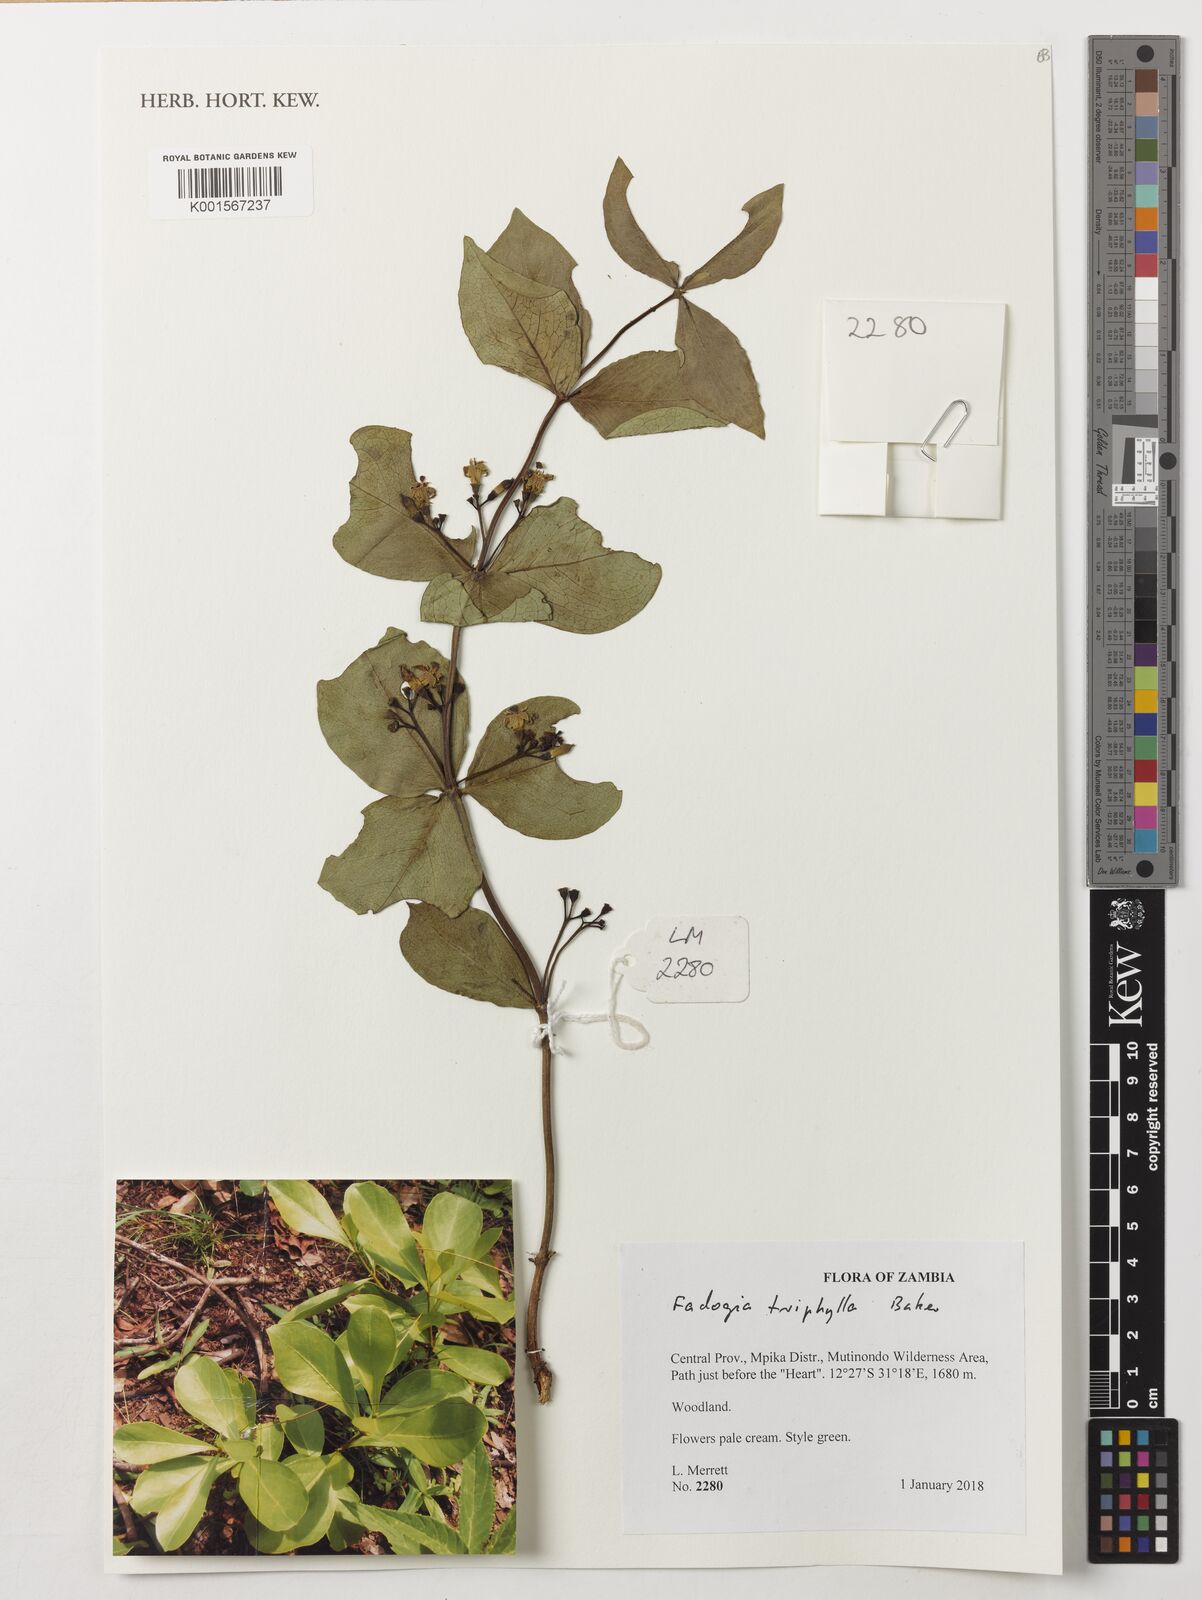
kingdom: Plantae
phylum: Tracheophyta
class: Magnoliopsida
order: Gentianales
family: Rubiaceae
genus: Fadogia
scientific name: Fadogia triphylla
